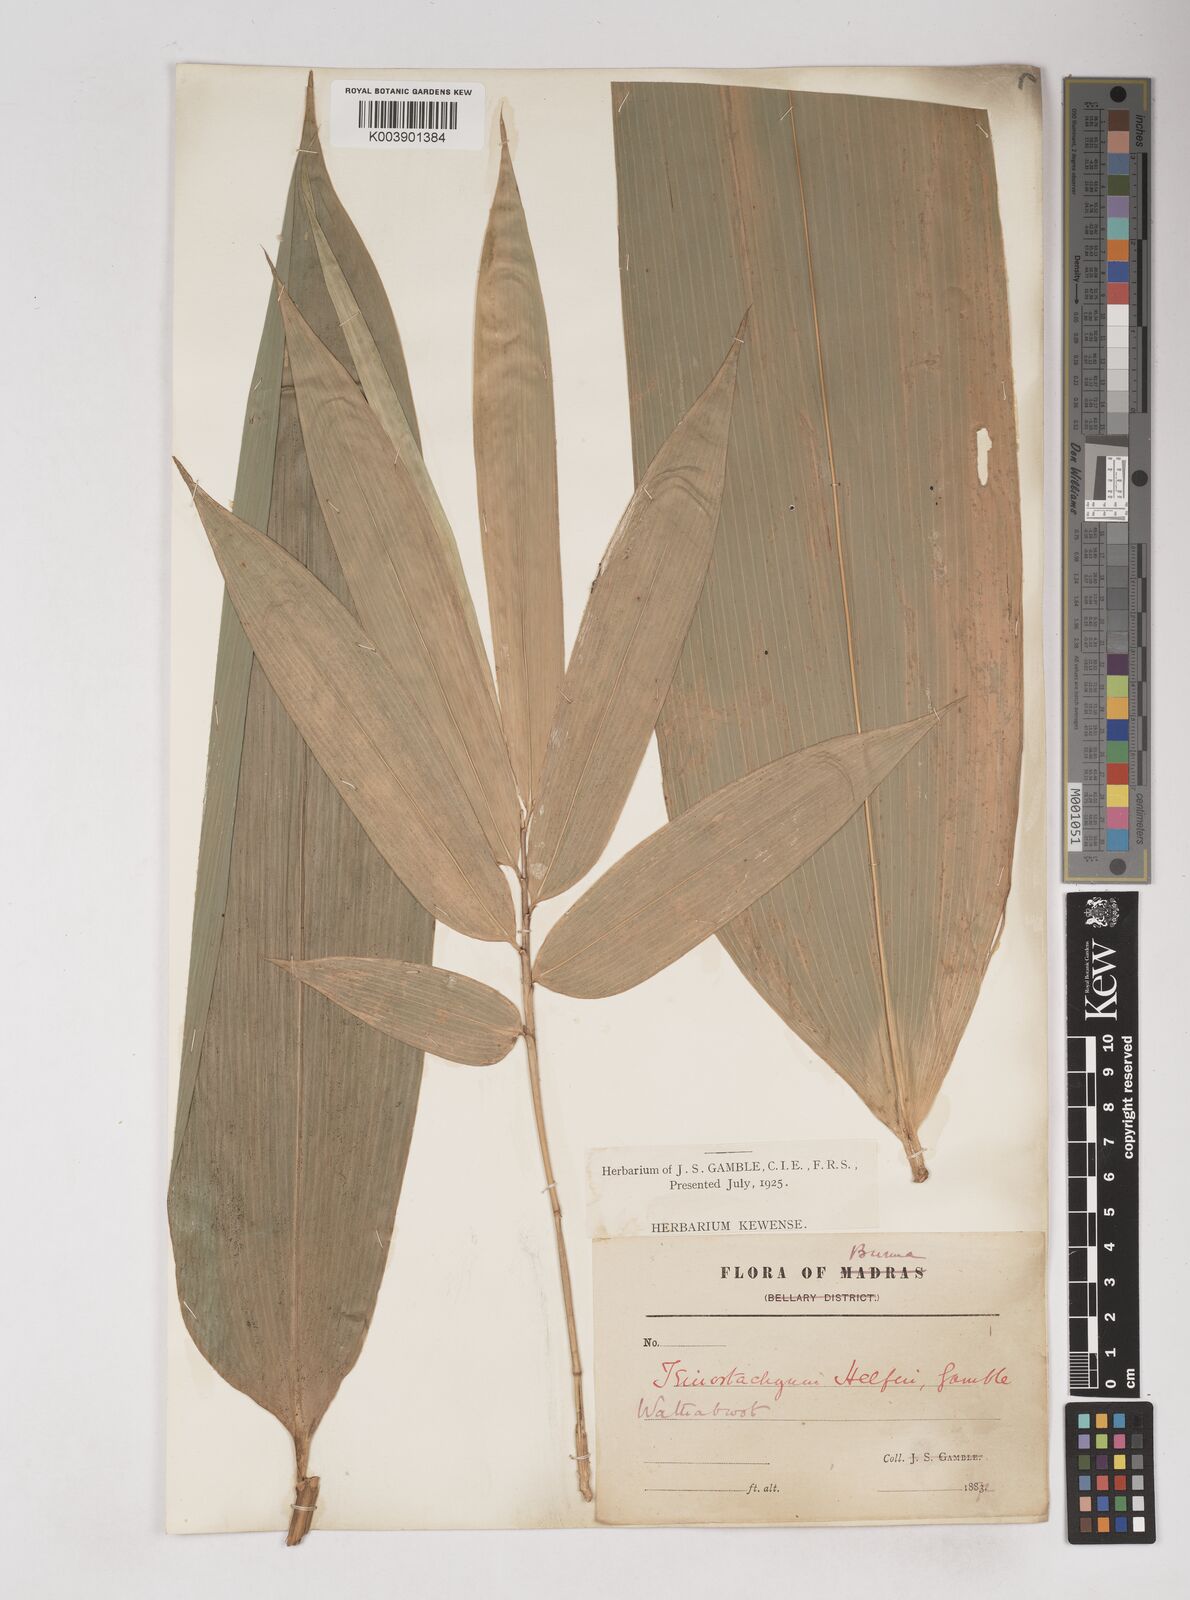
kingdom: Plantae
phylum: Tracheophyta
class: Liliopsida
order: Poales
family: Poaceae
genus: Schizostachyum
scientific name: Schizostachyum helferi
